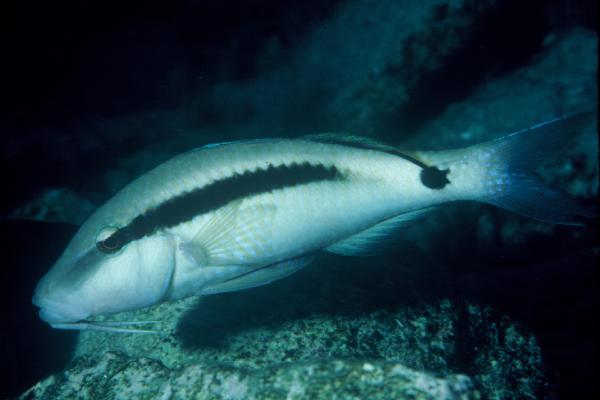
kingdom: Animalia
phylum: Chordata
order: Perciformes
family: Mullidae
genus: Parupeneus
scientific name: Parupeneus macronemus
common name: Long-barbel goatfish
